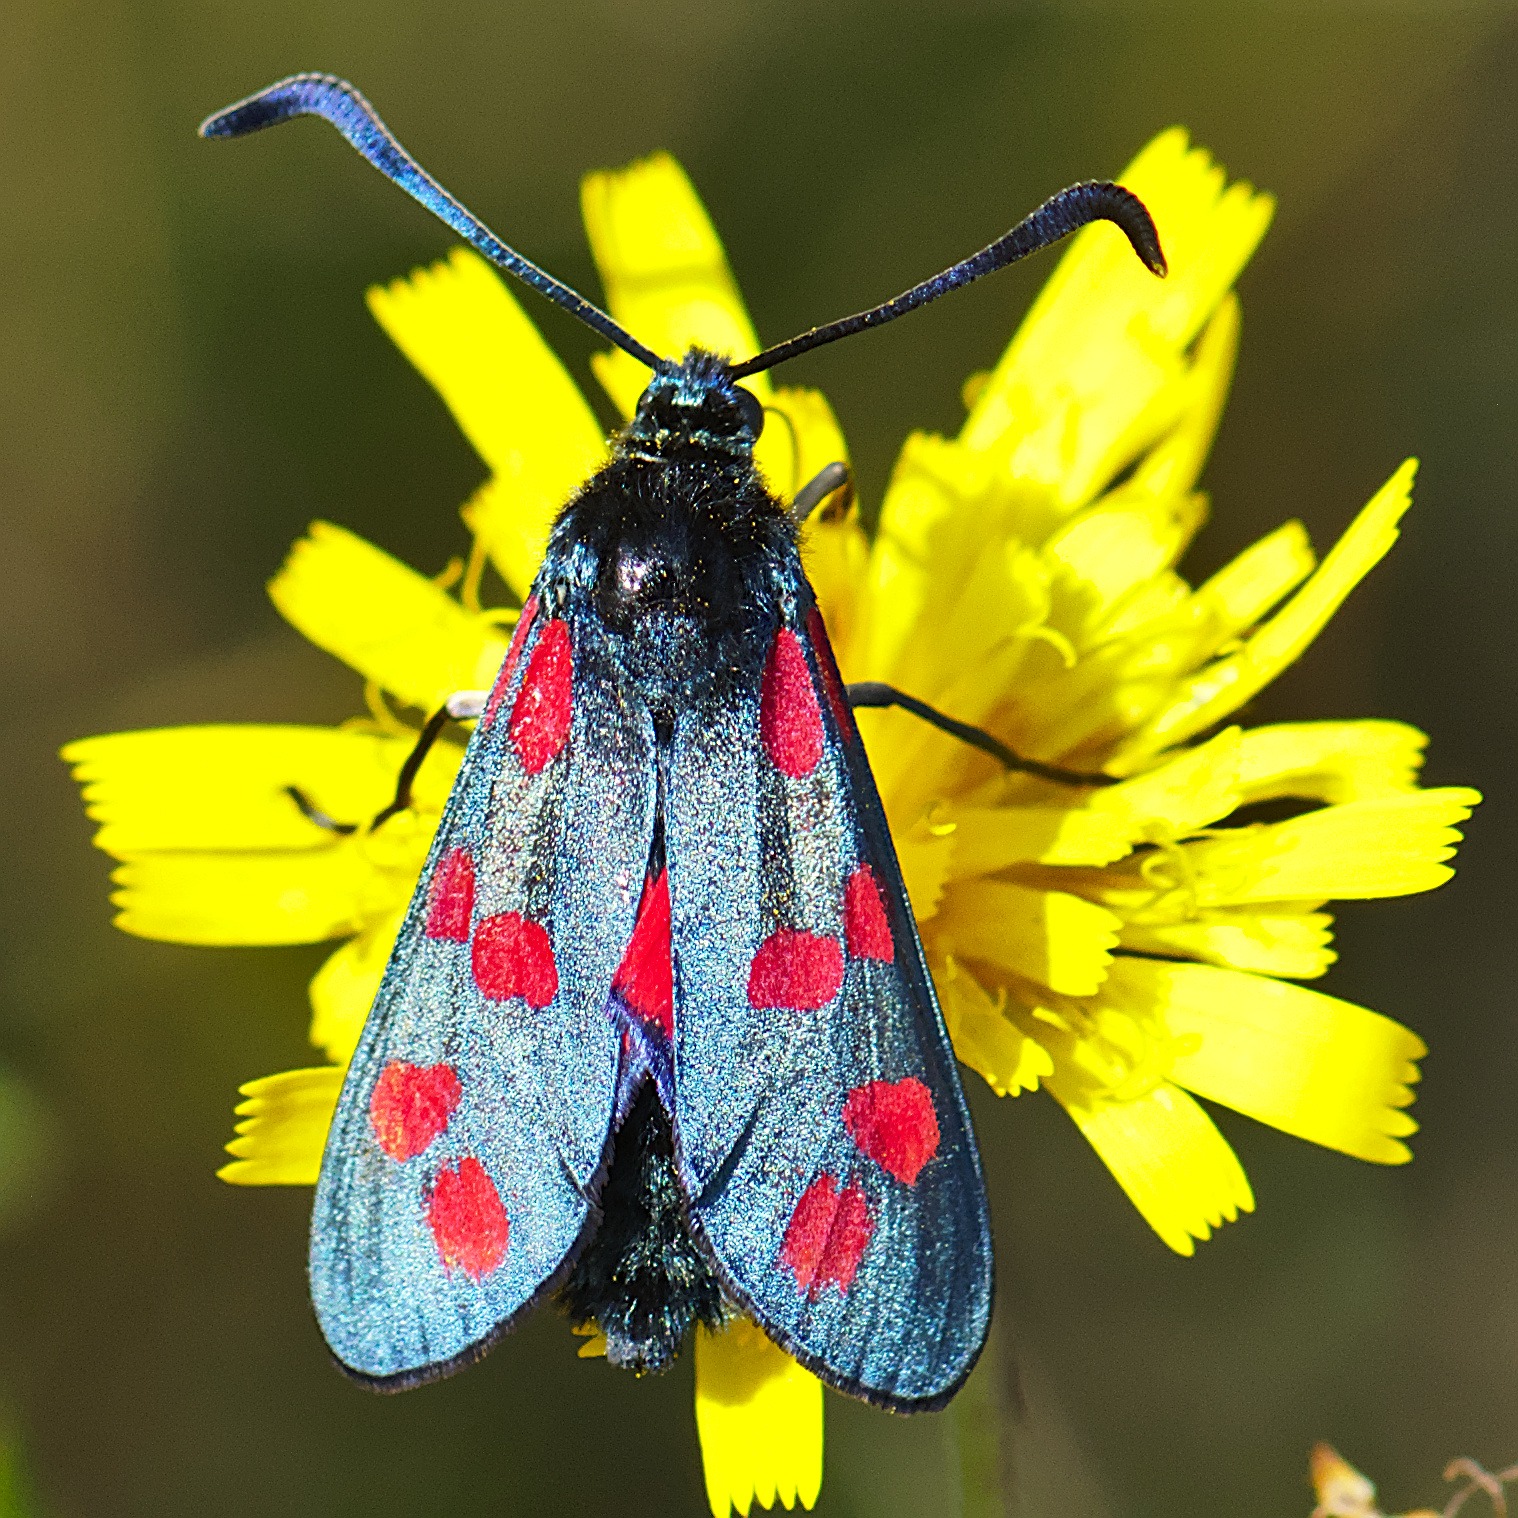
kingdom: Animalia
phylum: Arthropoda
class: Insecta
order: Lepidoptera
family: Zygaenidae
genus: Zygaena
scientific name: Zygaena filipendulae
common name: Seksplettet køllesværmer
